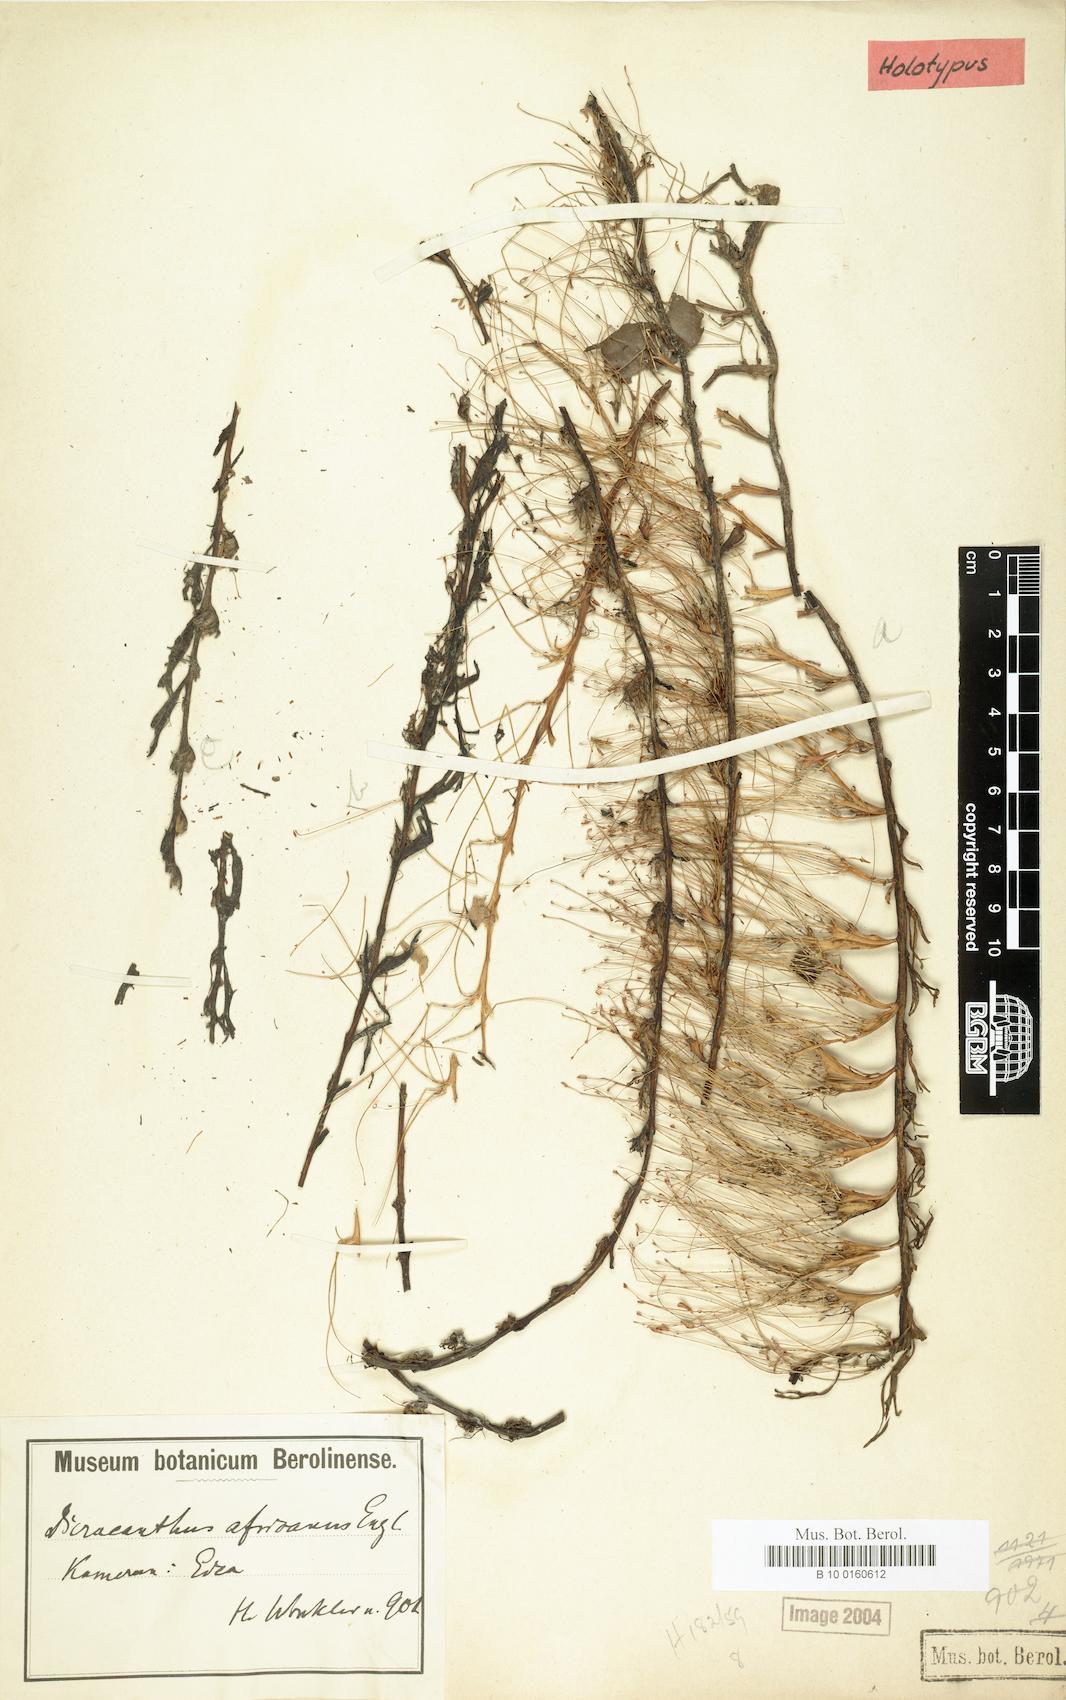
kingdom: Plantae
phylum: Tracheophyta
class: Magnoliopsida
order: Malpighiales
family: Podostemaceae
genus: Dicraeanthus
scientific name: Dicraeanthus africanus
